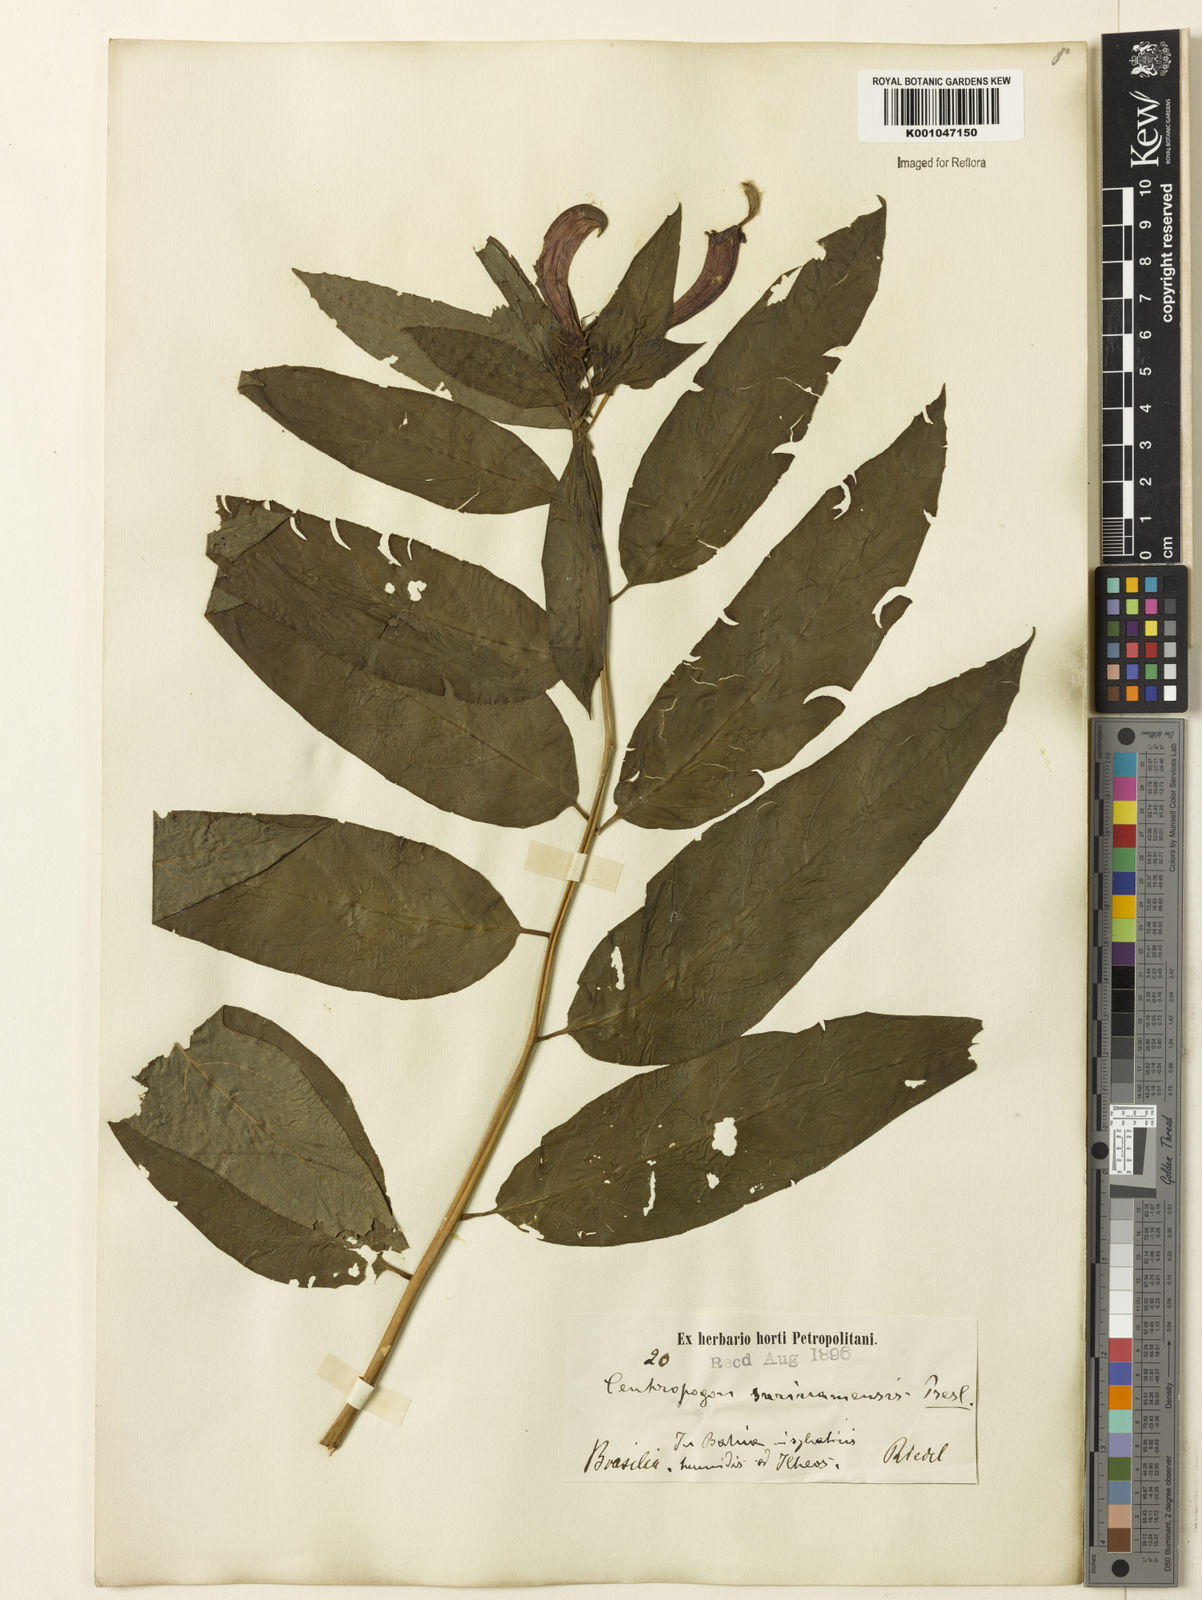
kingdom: Plantae
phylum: Tracheophyta
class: Magnoliopsida
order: Asterales
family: Campanulaceae
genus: Centropogon
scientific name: Centropogon cornutus
